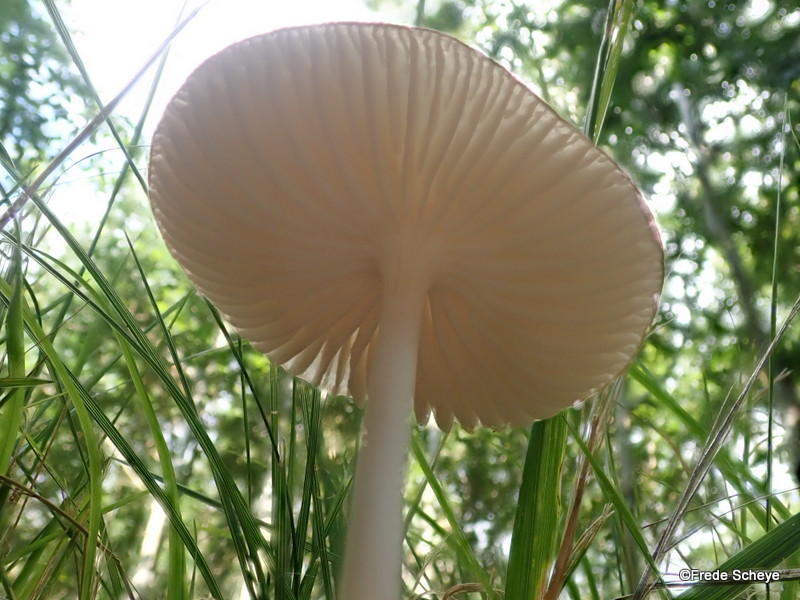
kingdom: Fungi
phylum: Basidiomycota
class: Agaricomycetes
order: Agaricales
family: Physalacriaceae
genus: Hymenopellis
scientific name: Hymenopellis radicata
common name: almindelig pælerodshat
